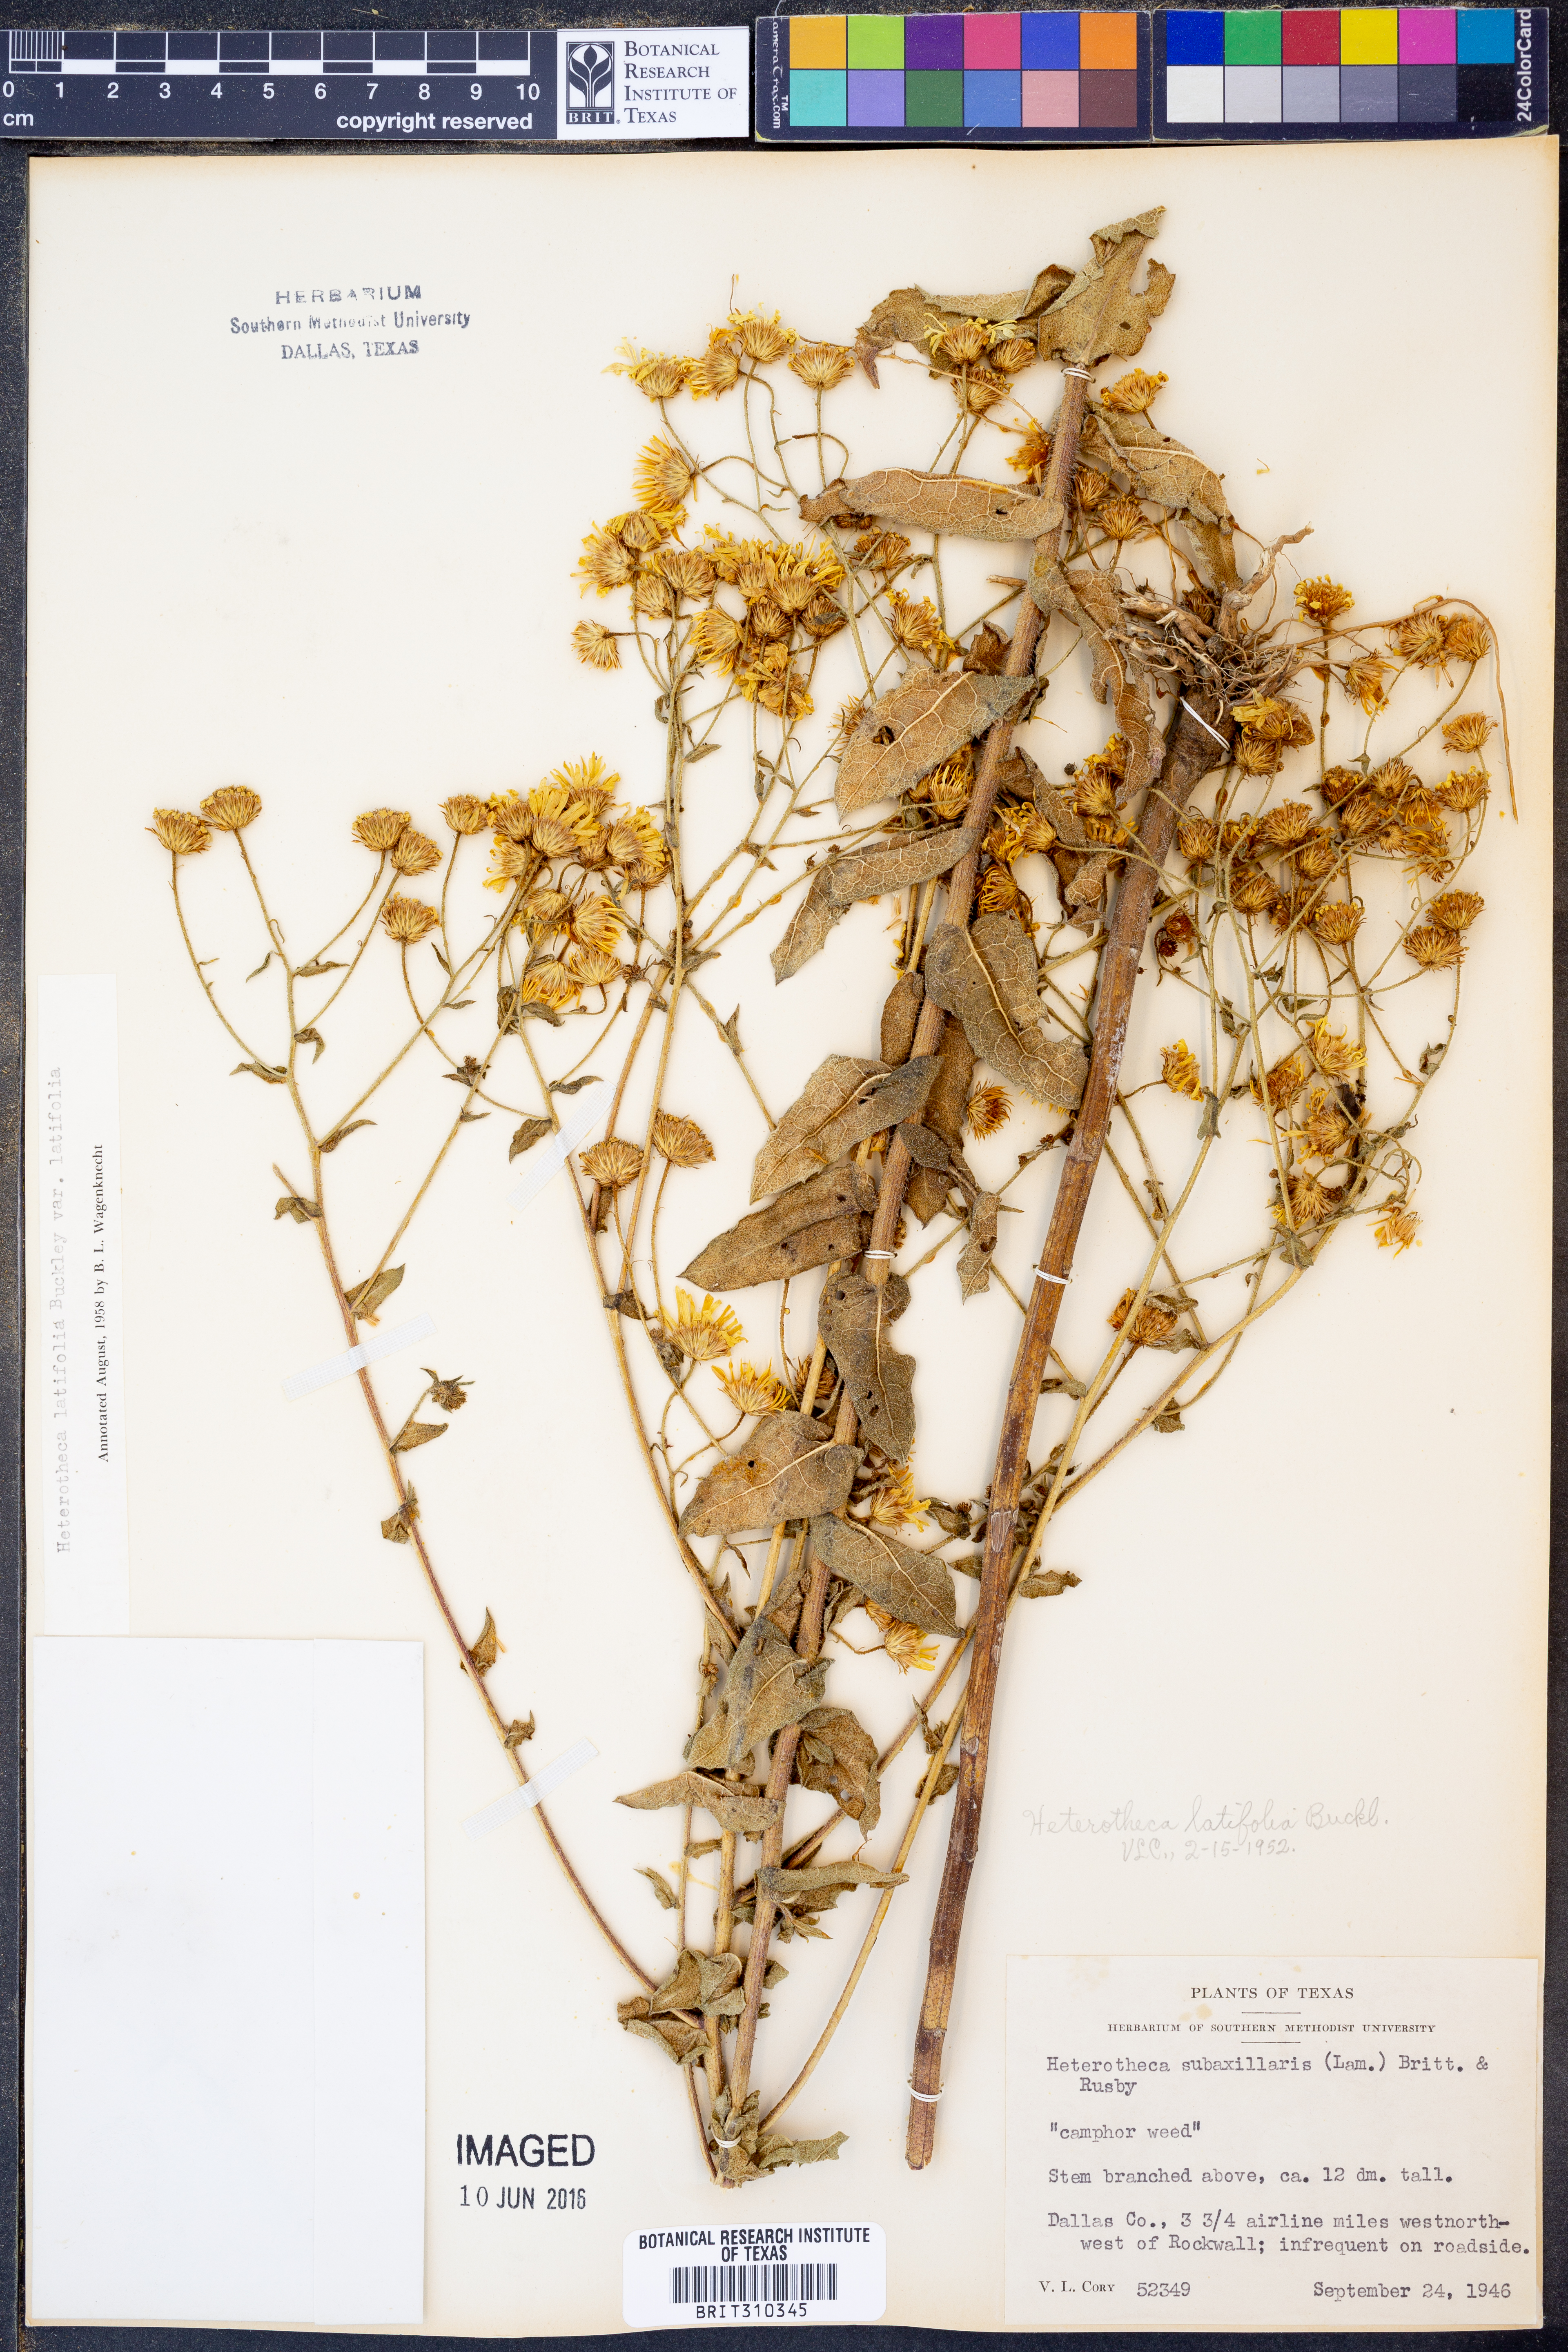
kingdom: Plantae
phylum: Tracheophyta
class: Magnoliopsida
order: Asterales
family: Asteraceae
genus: Heterotheca
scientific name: Heterotheca subaxillaris
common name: Camphorweed
